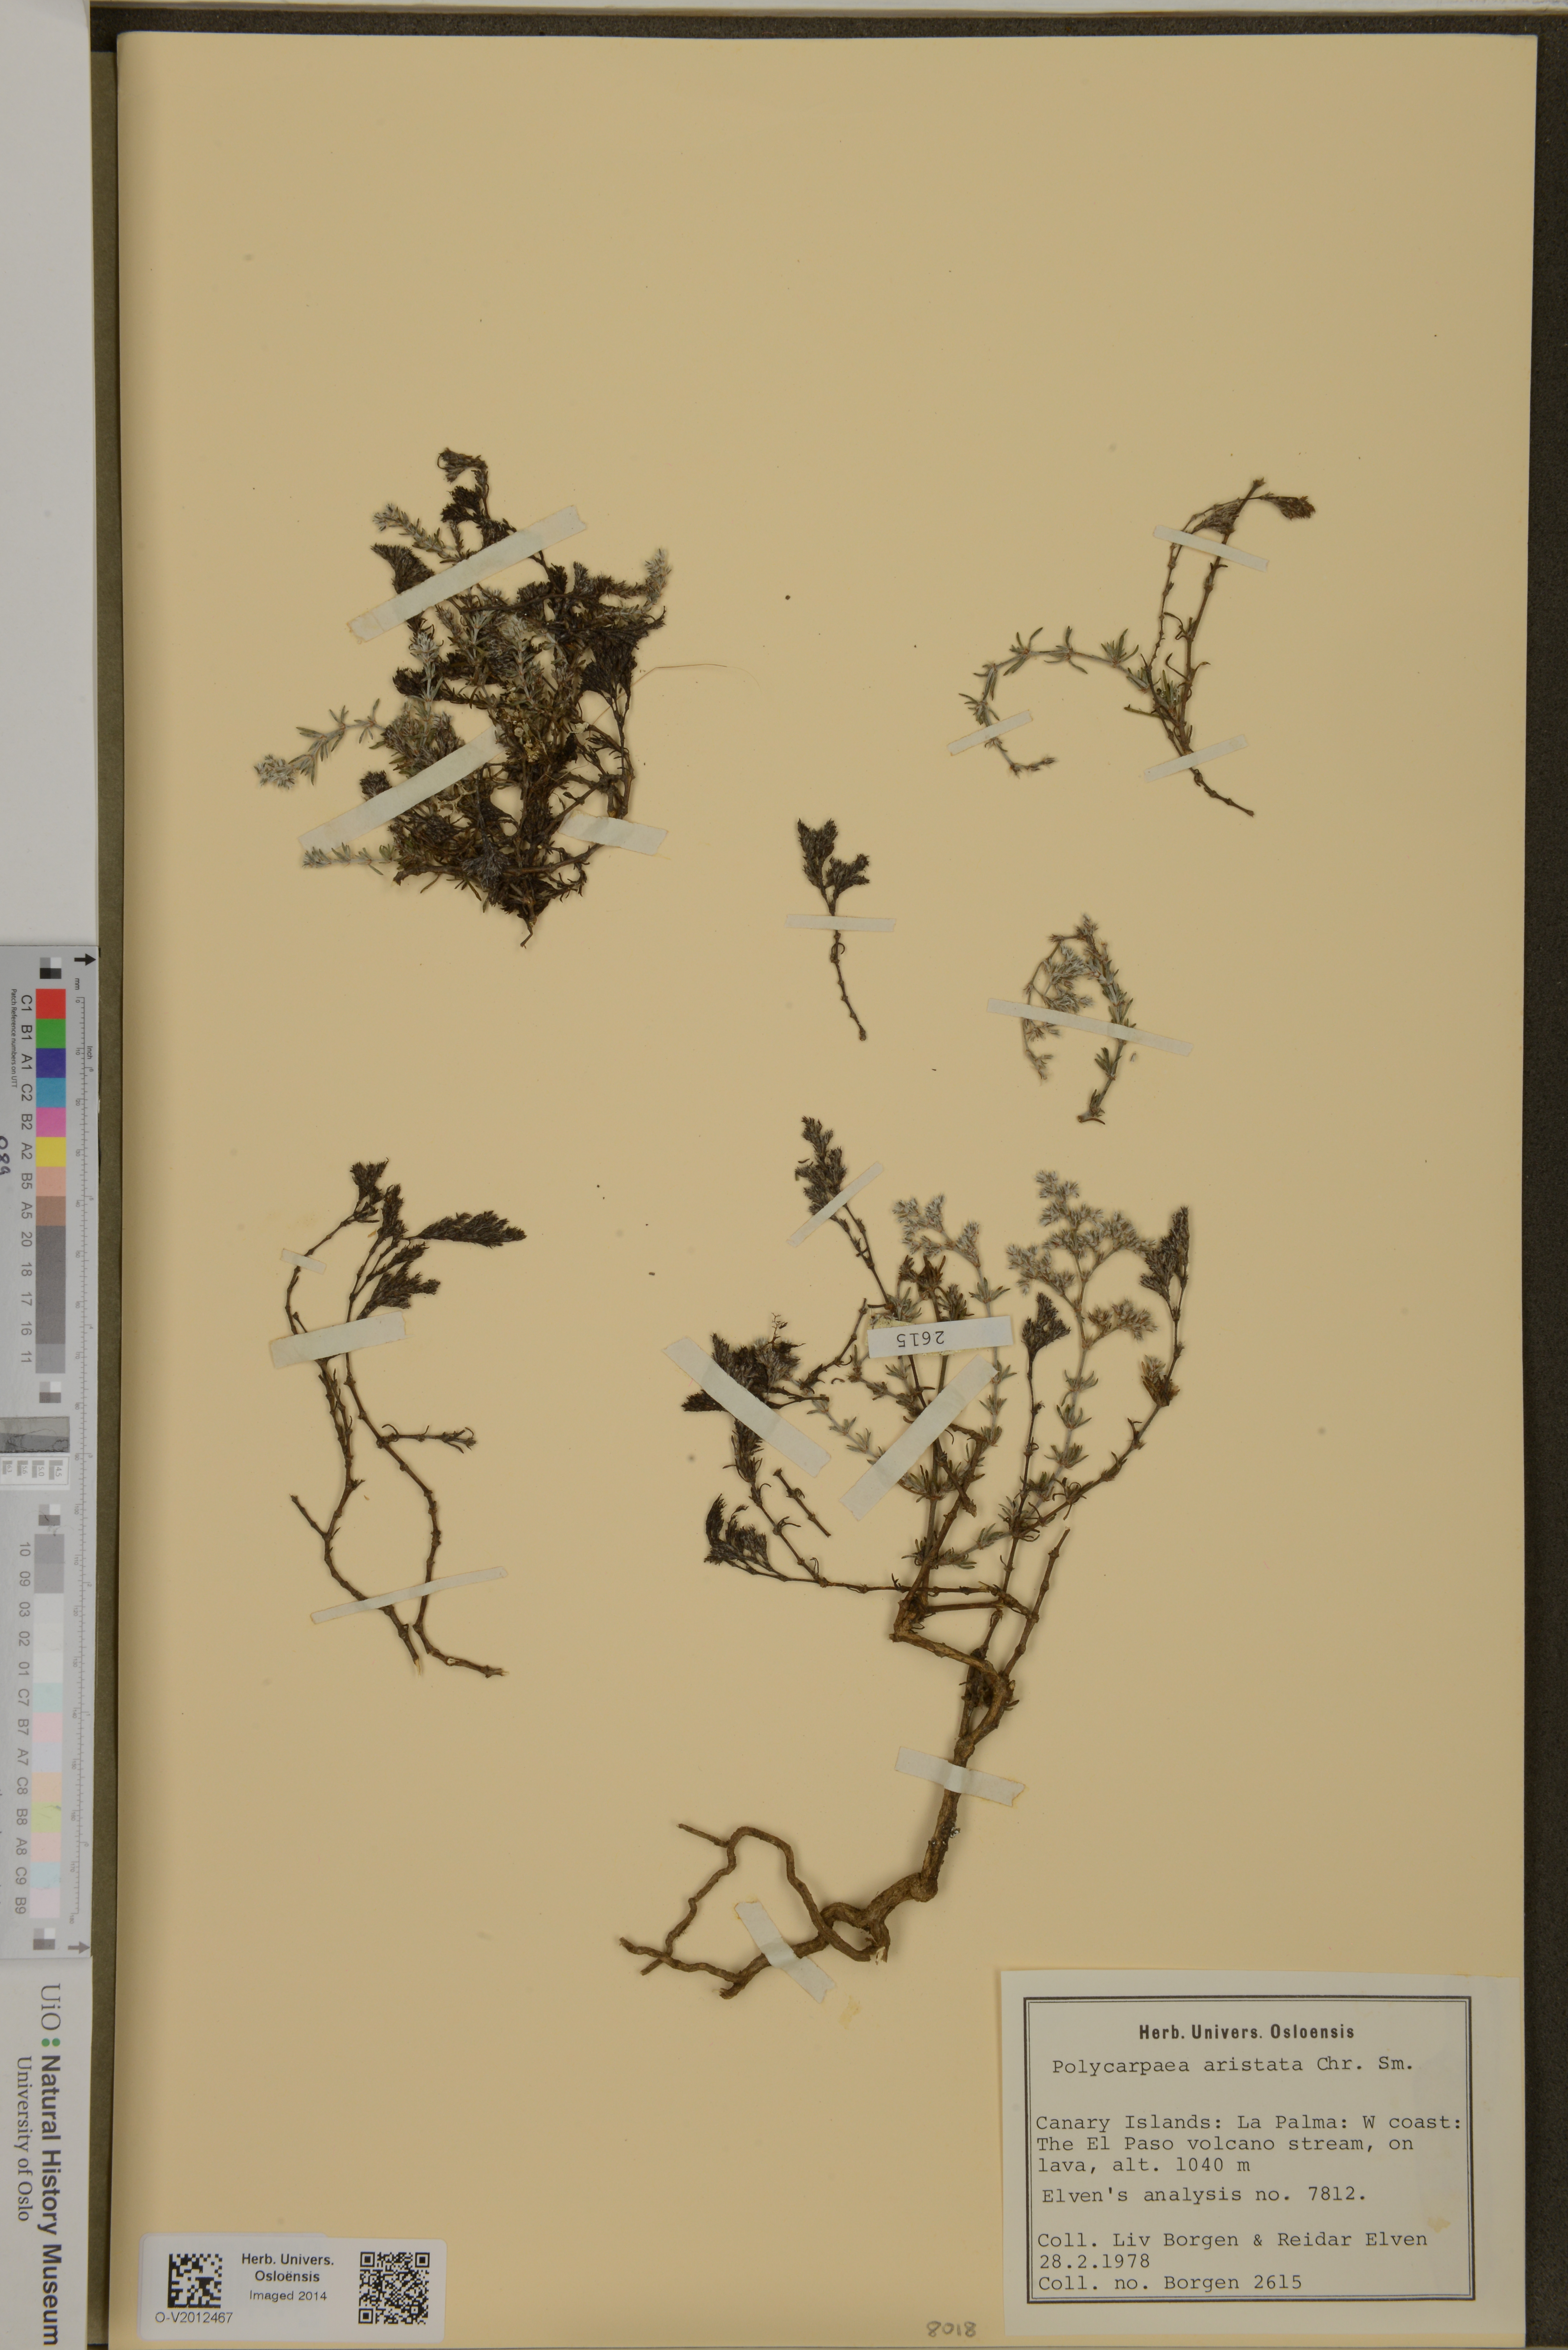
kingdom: Plantae
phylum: Tracheophyta
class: Magnoliopsida
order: Caryophyllales
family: Caryophyllaceae
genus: Polycarpaea
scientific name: Polycarpaea aristata
